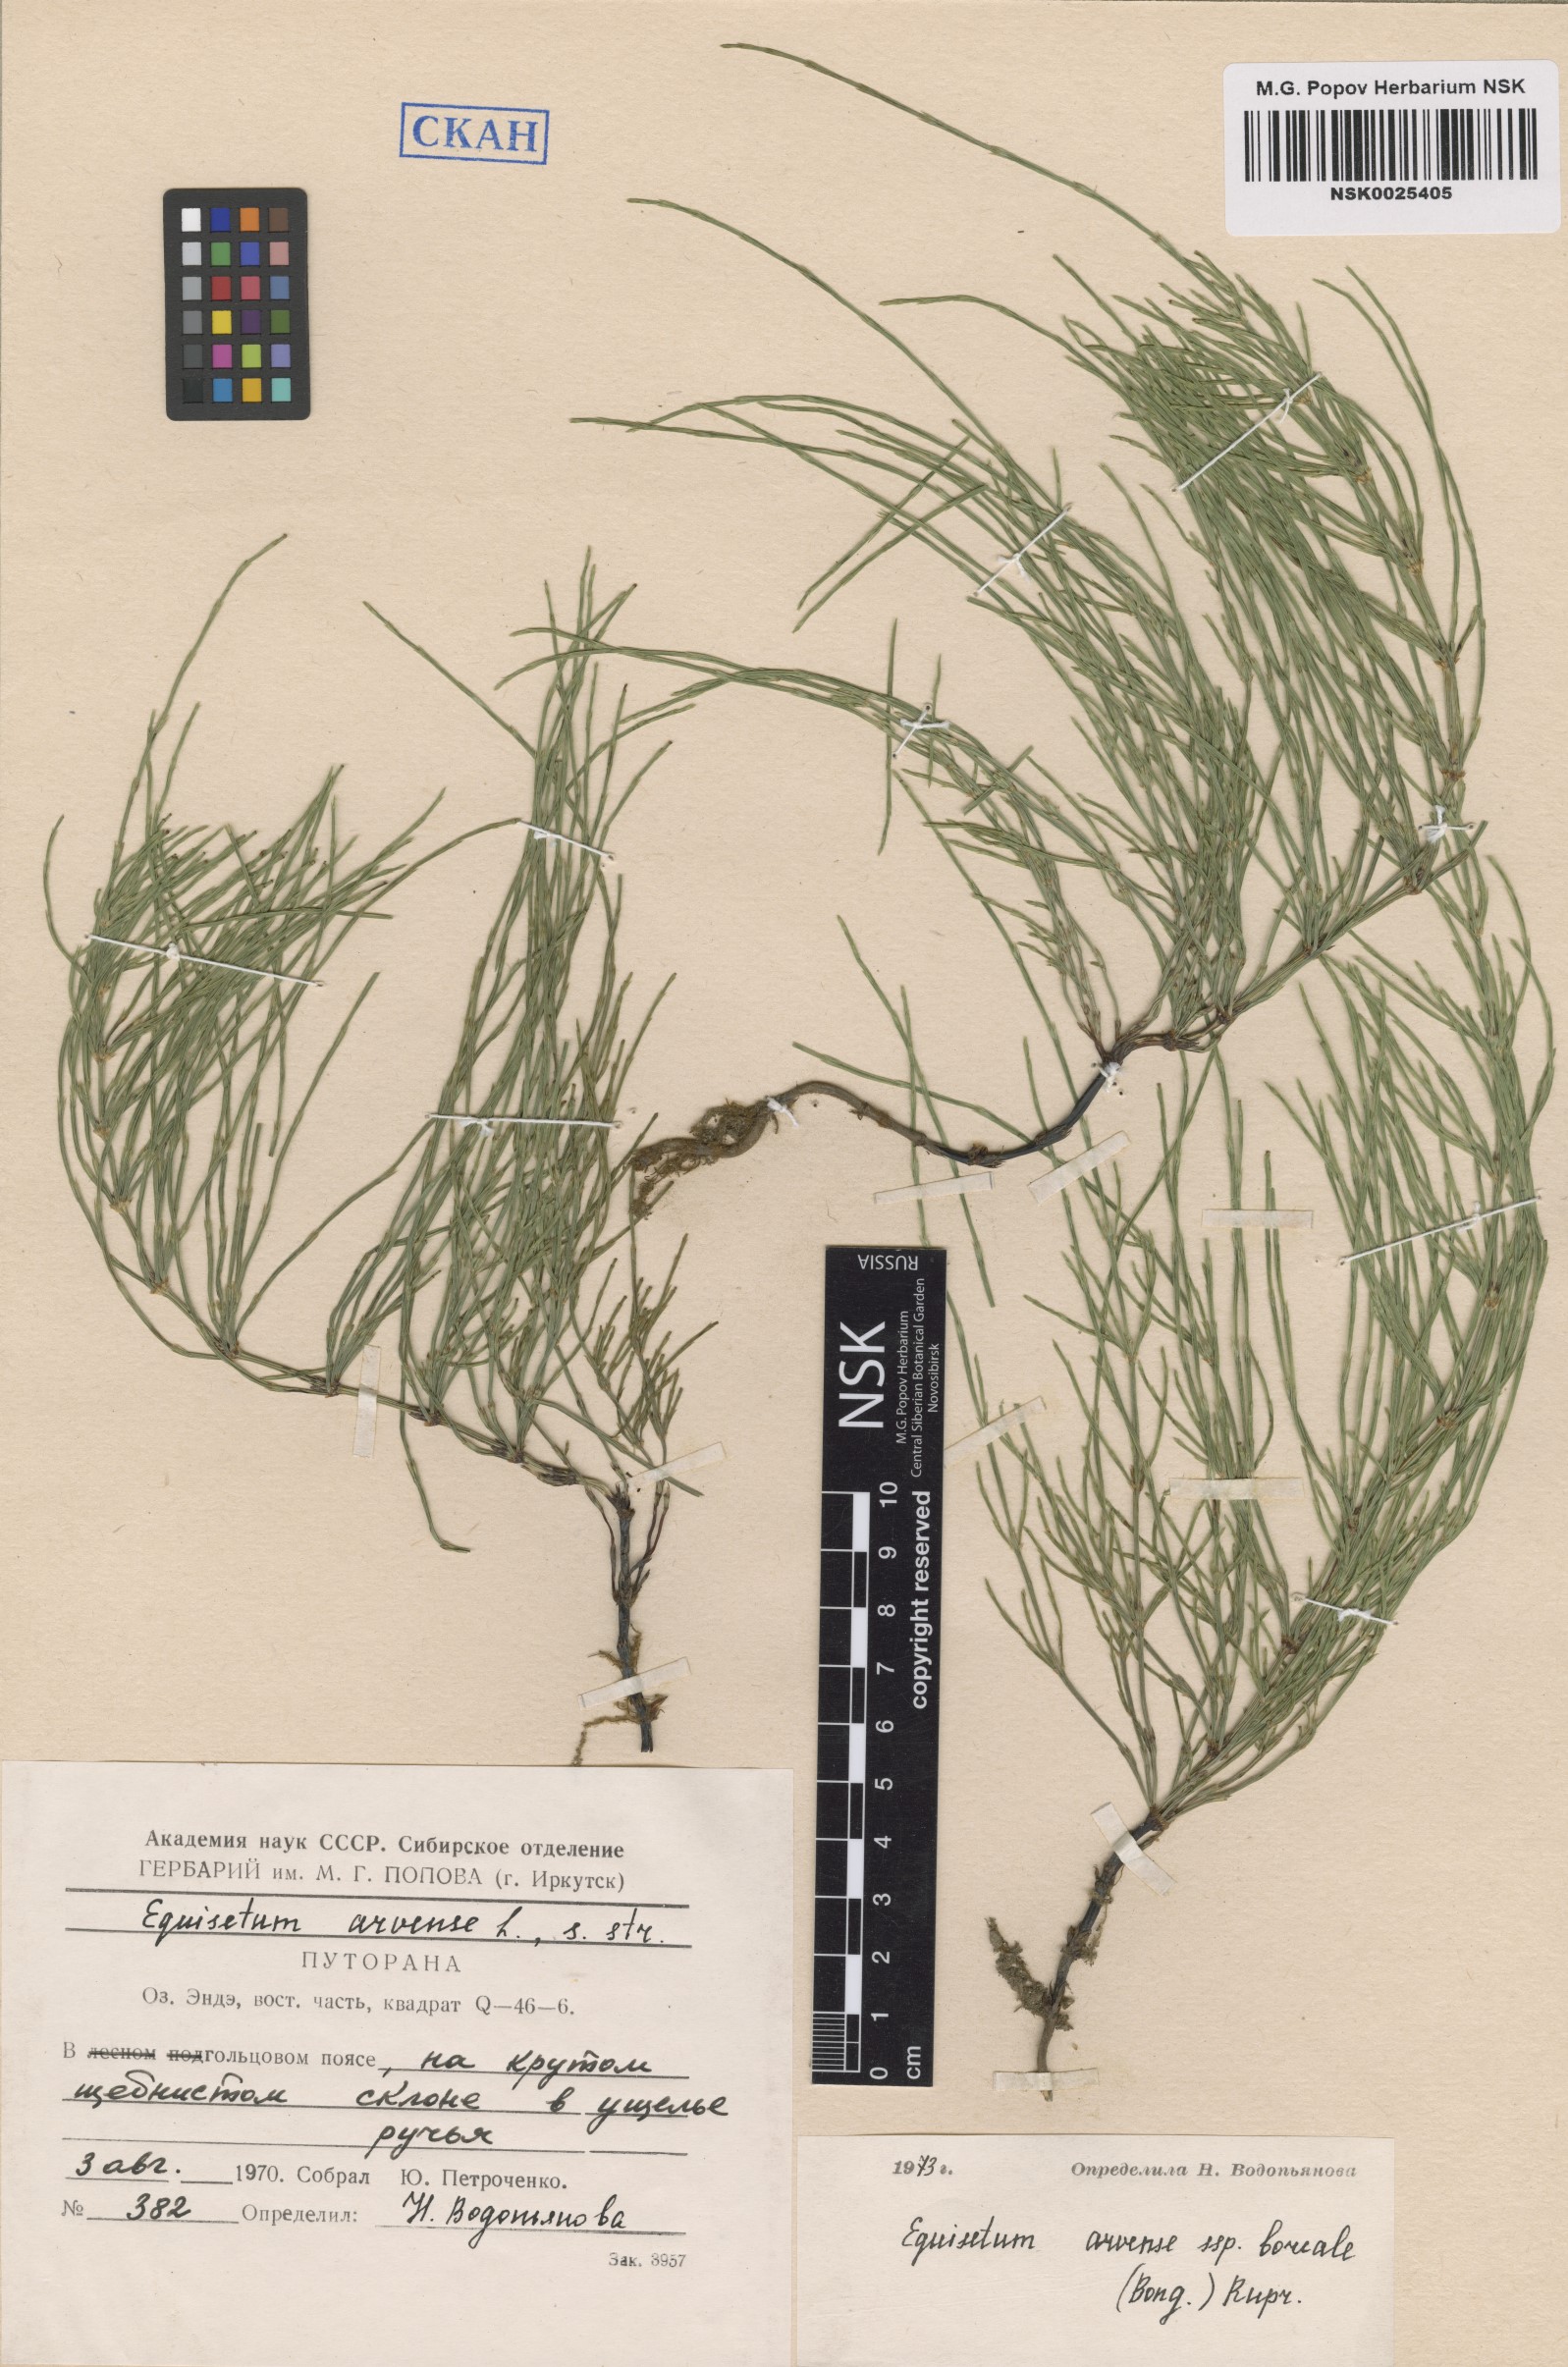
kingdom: Plantae
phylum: Tracheophyta
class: Polypodiopsida
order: Equisetales
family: Equisetaceae
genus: Equisetum
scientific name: Equisetum arvense
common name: Field horsetail
